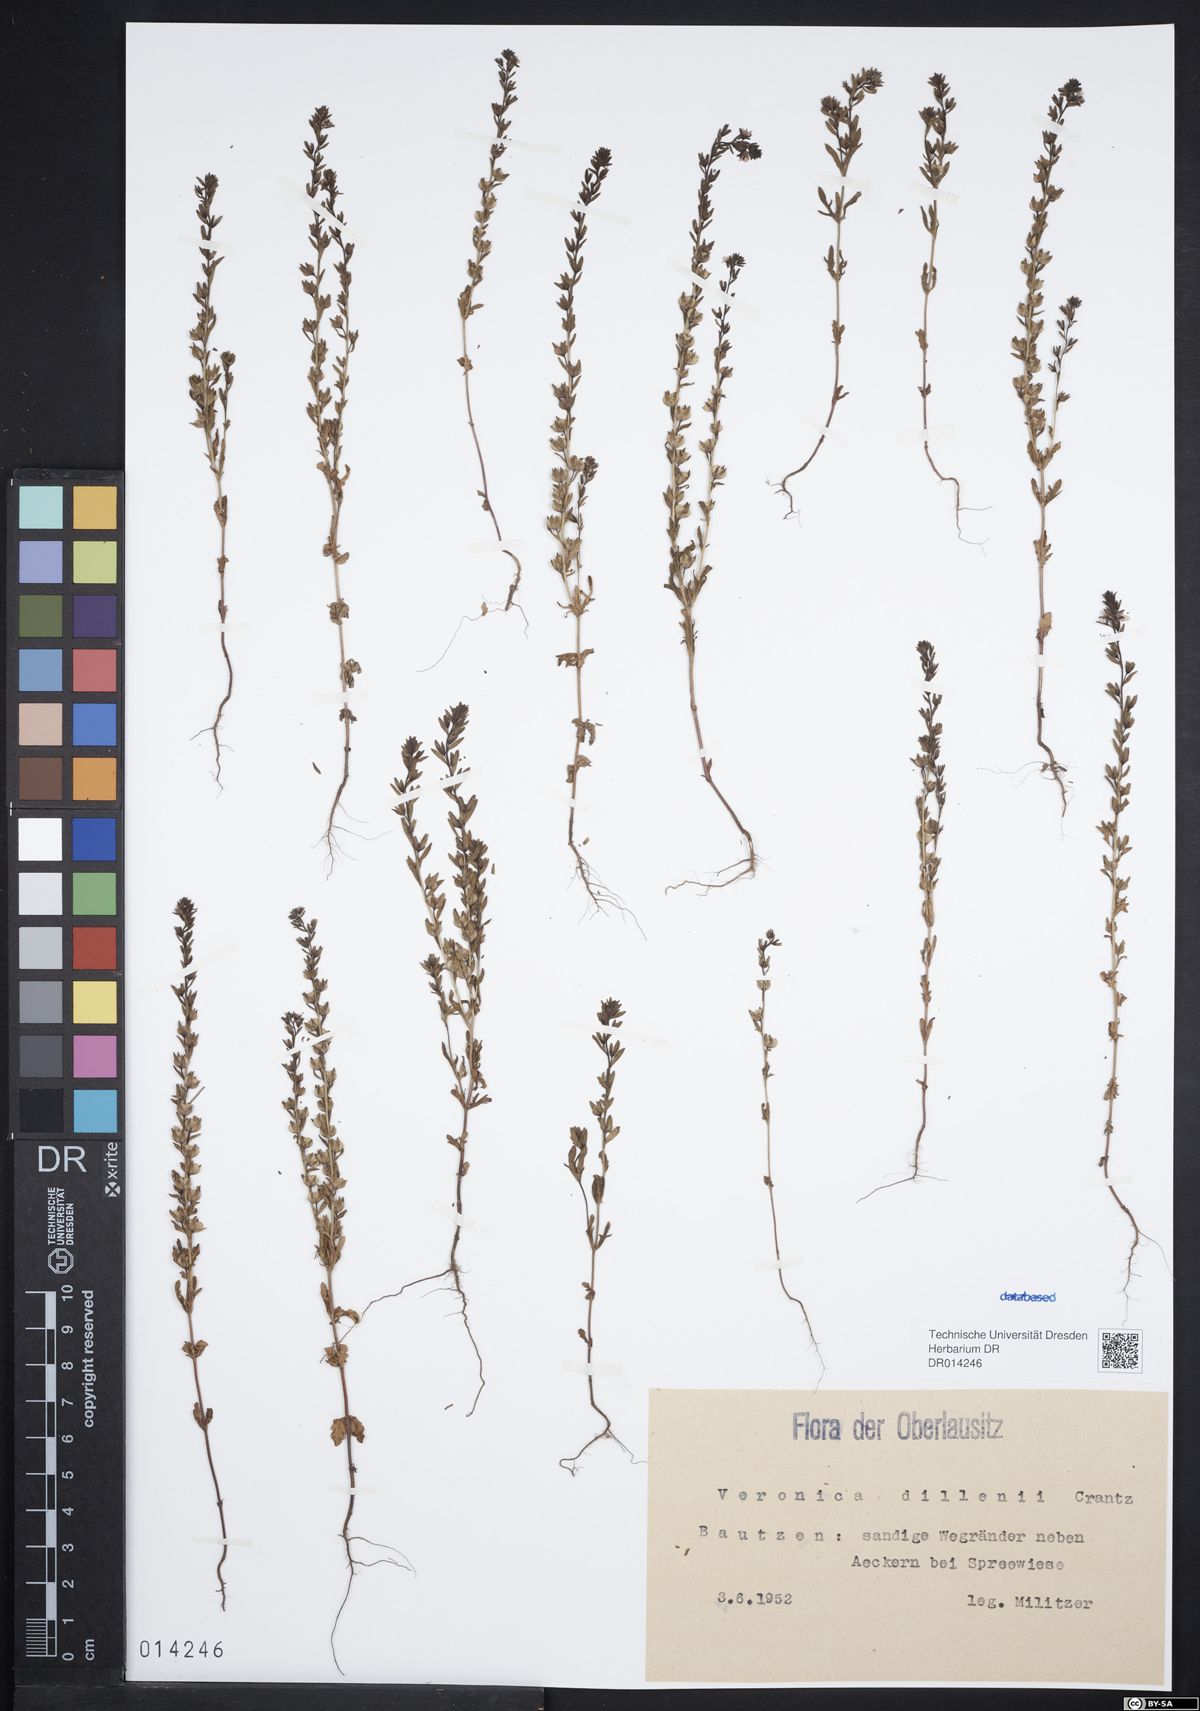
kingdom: Plantae
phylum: Tracheophyta
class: Magnoliopsida
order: Lamiales
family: Plantaginaceae
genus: Veronica
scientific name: Veronica dillenii
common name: Dillenius' speedwell
